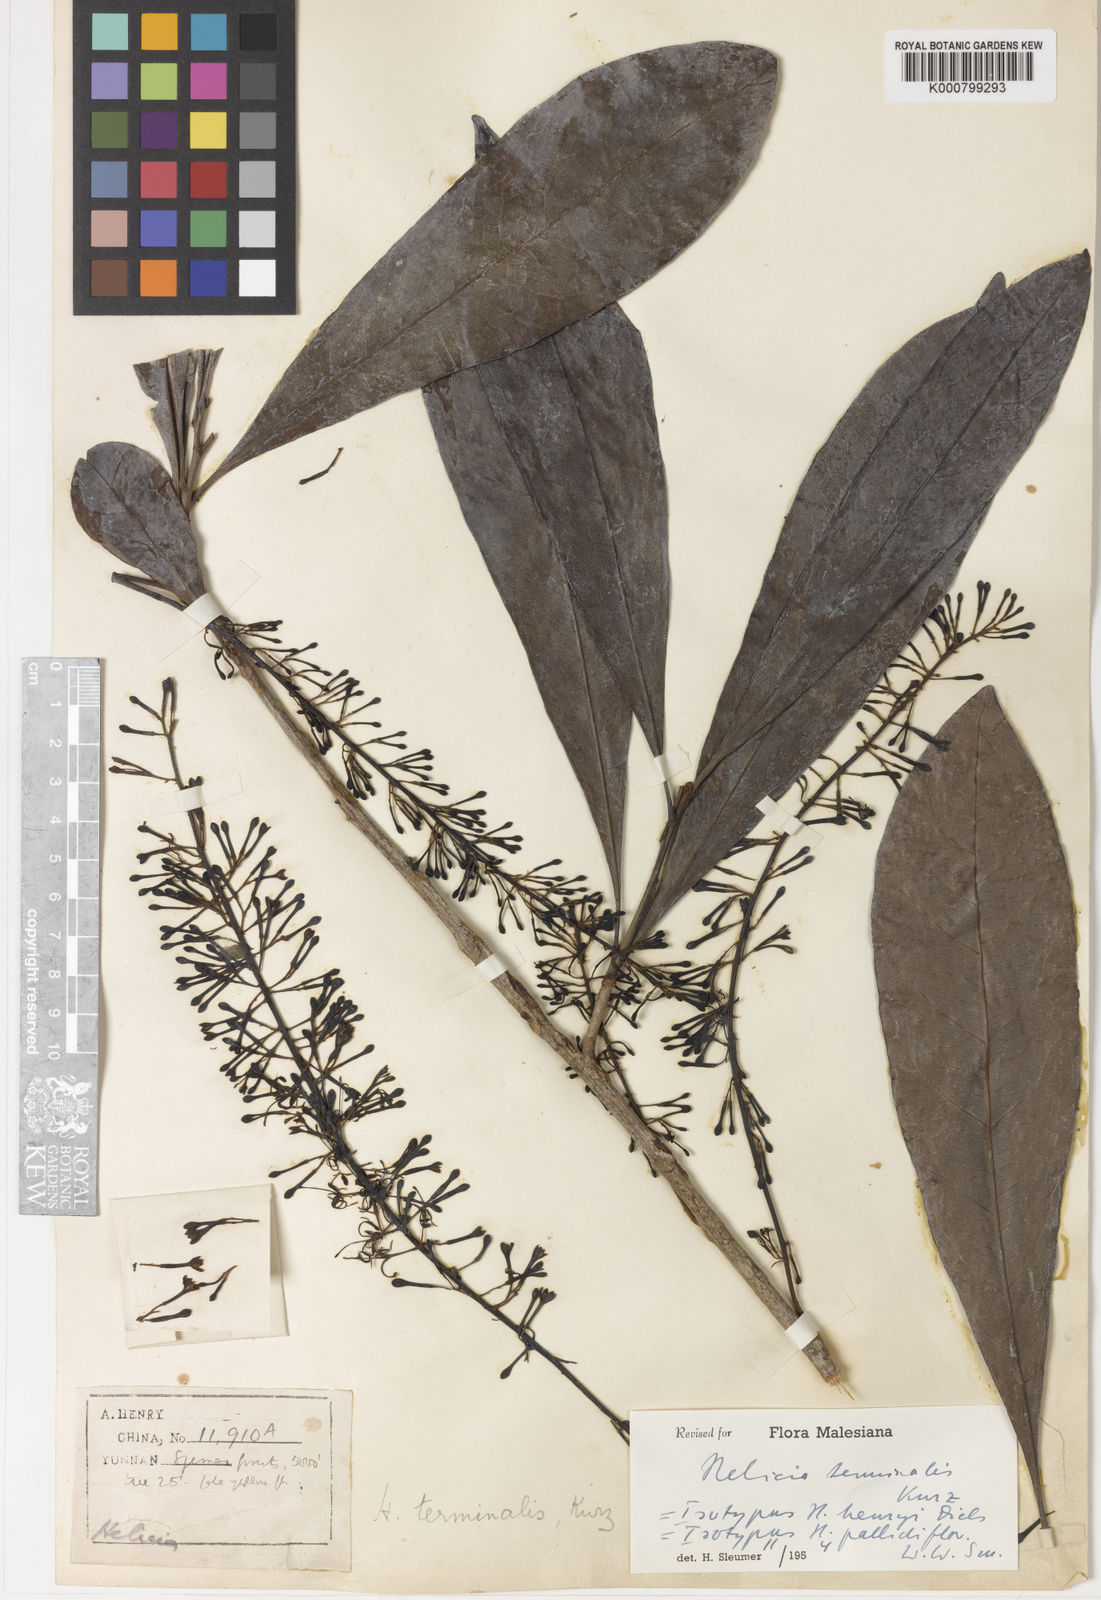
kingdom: Plantae
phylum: Tracheophyta
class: Magnoliopsida
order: Proteales
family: Proteaceae
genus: Heliciopsis
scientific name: Heliciopsis terminalis
